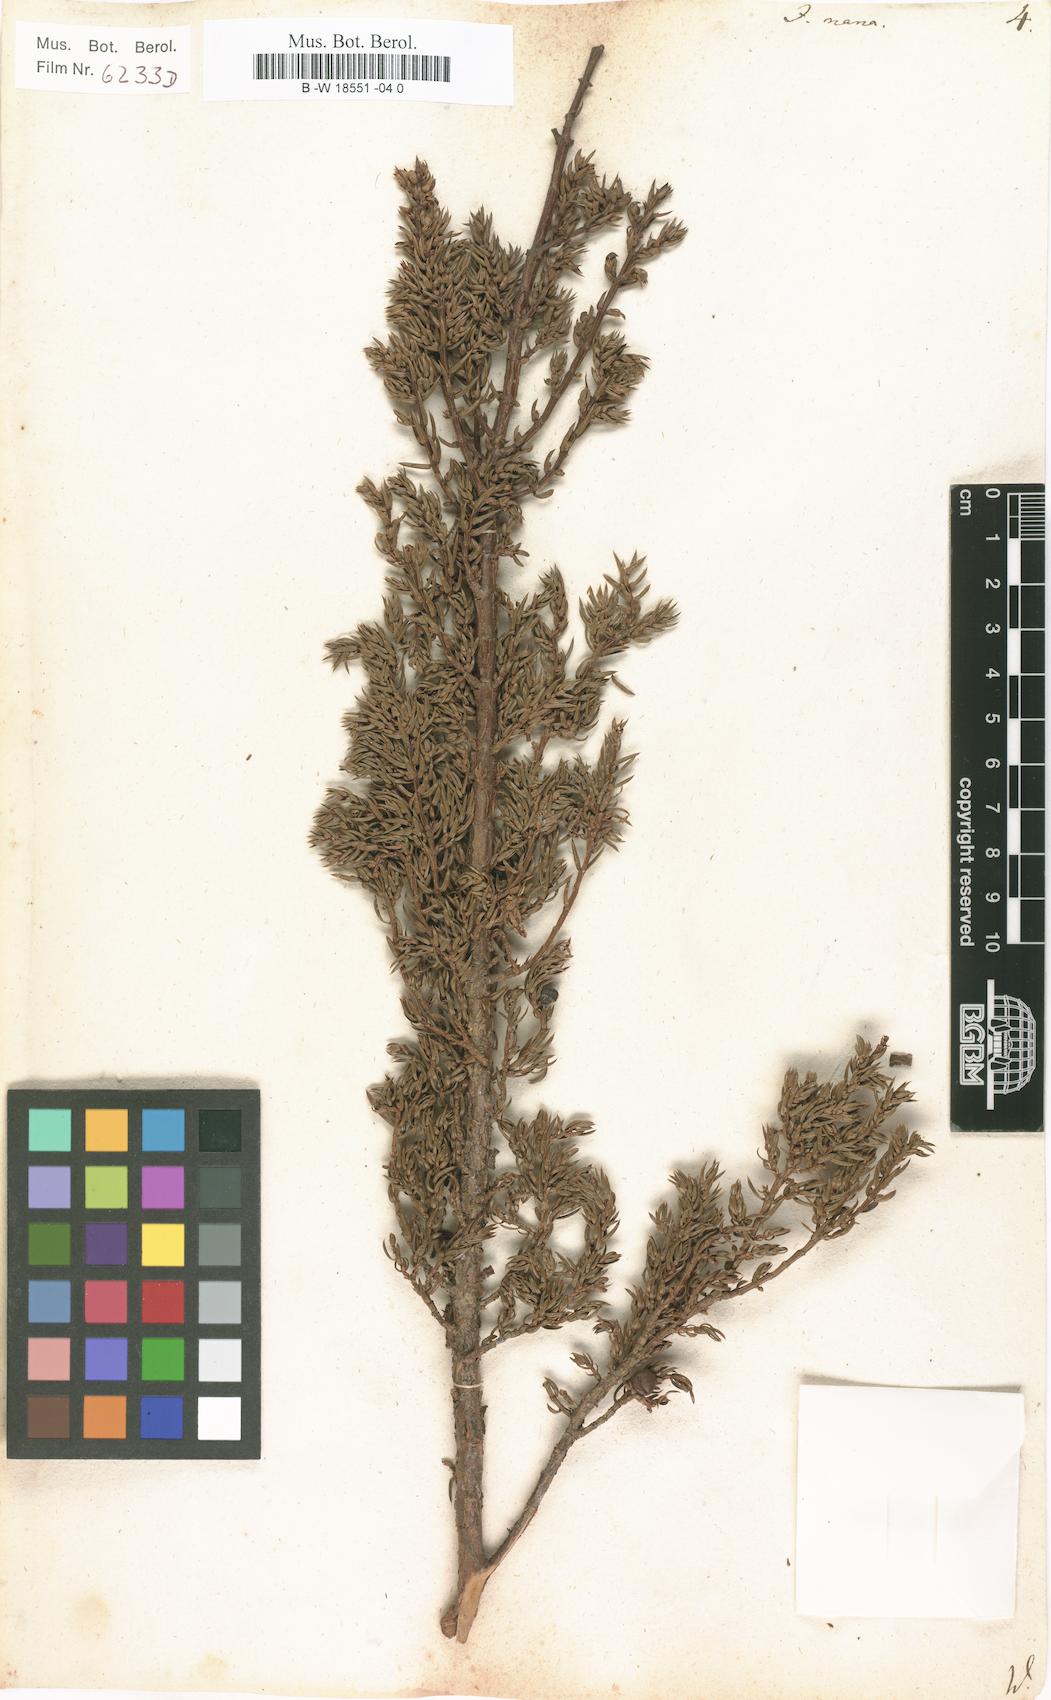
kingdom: Plantae
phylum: Tracheophyta
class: Pinopsida
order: Pinales
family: Cupressaceae
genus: Juniperus
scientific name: Juniperus communis
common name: Common juniper
